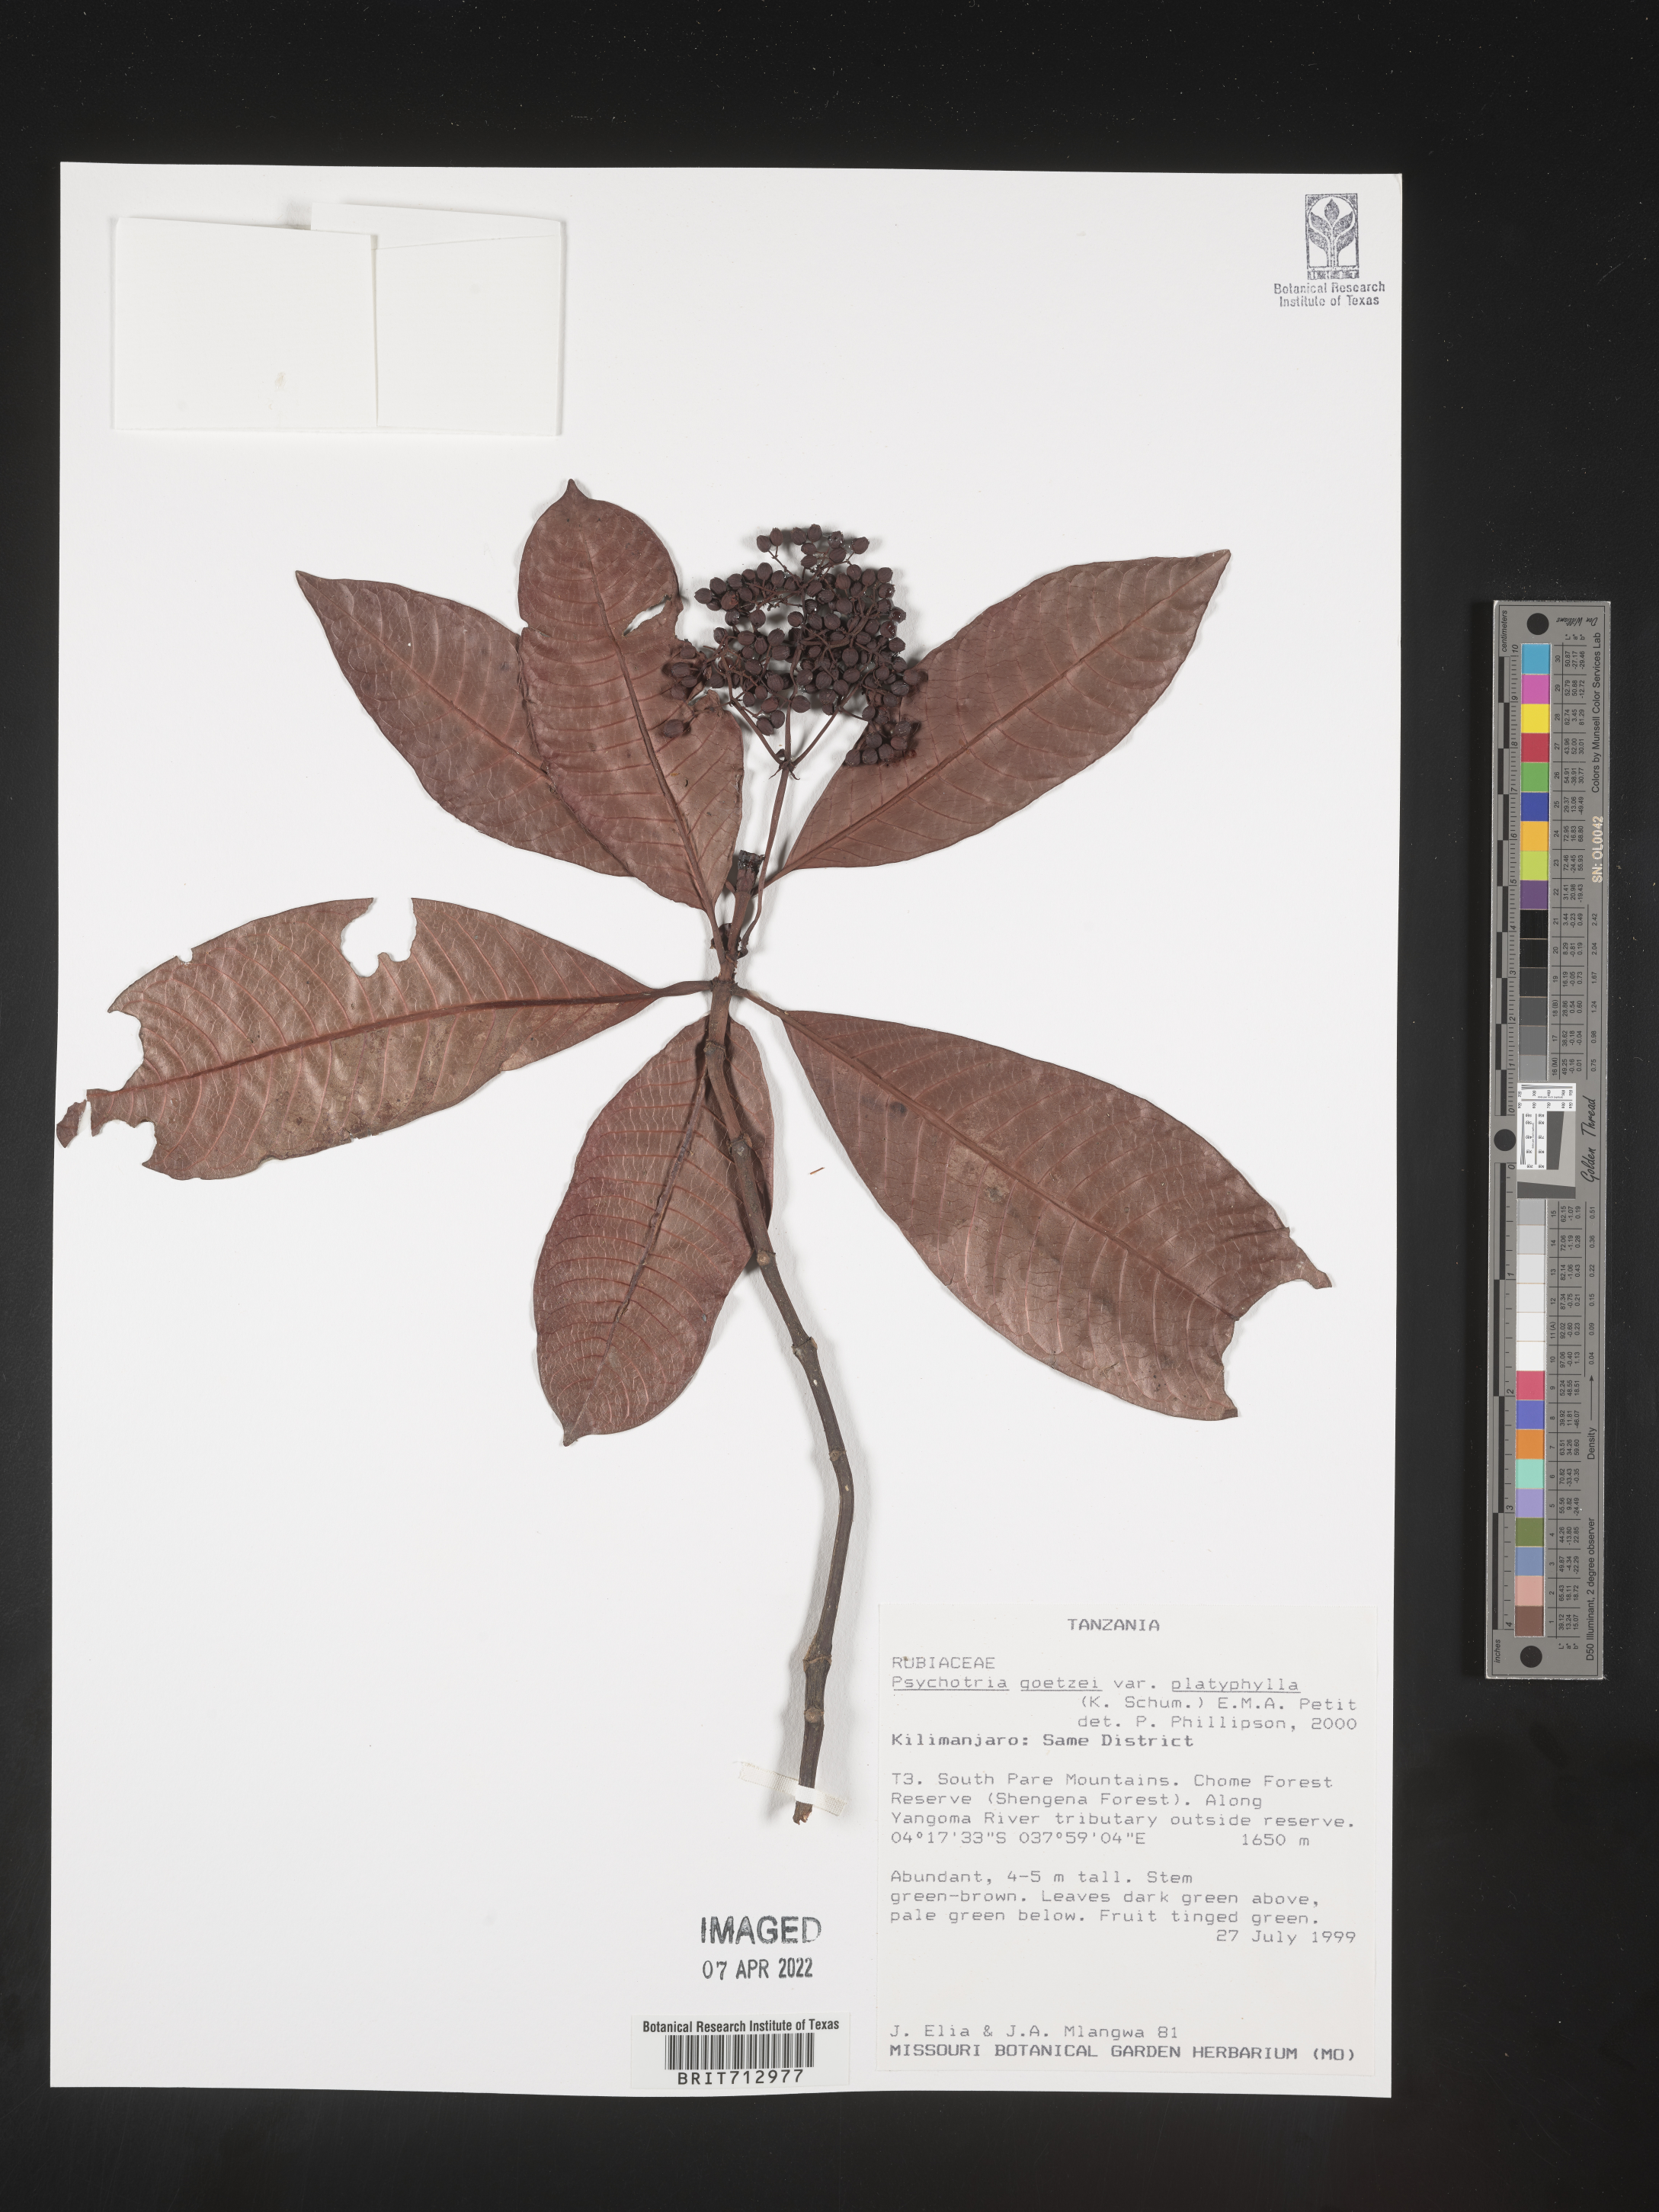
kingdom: Plantae
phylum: Tracheophyta
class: Magnoliopsida
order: Gentianales
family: Rubiaceae
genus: Psychotria
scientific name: Psychotria
